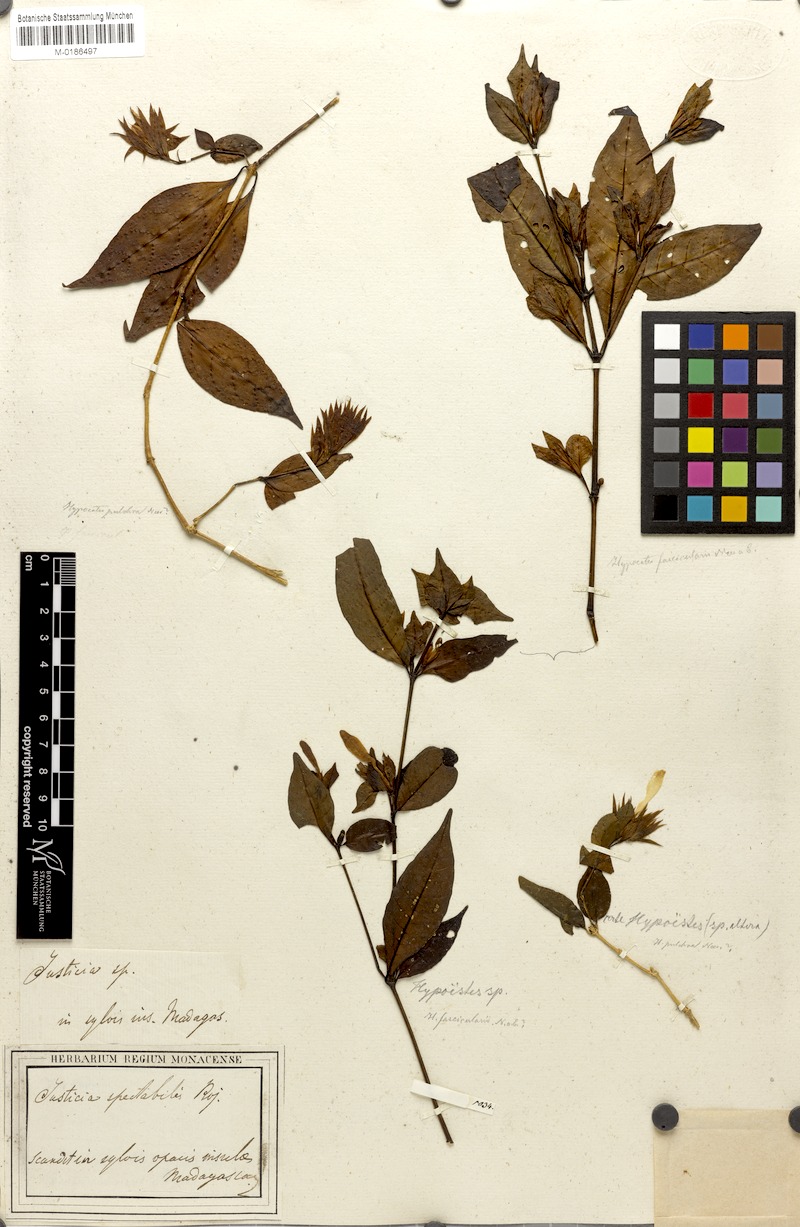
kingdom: Plantae
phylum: Tracheophyta
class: Magnoliopsida
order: Lamiales
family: Acanthaceae
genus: Hypoestes
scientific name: Hypoestes pulchra
